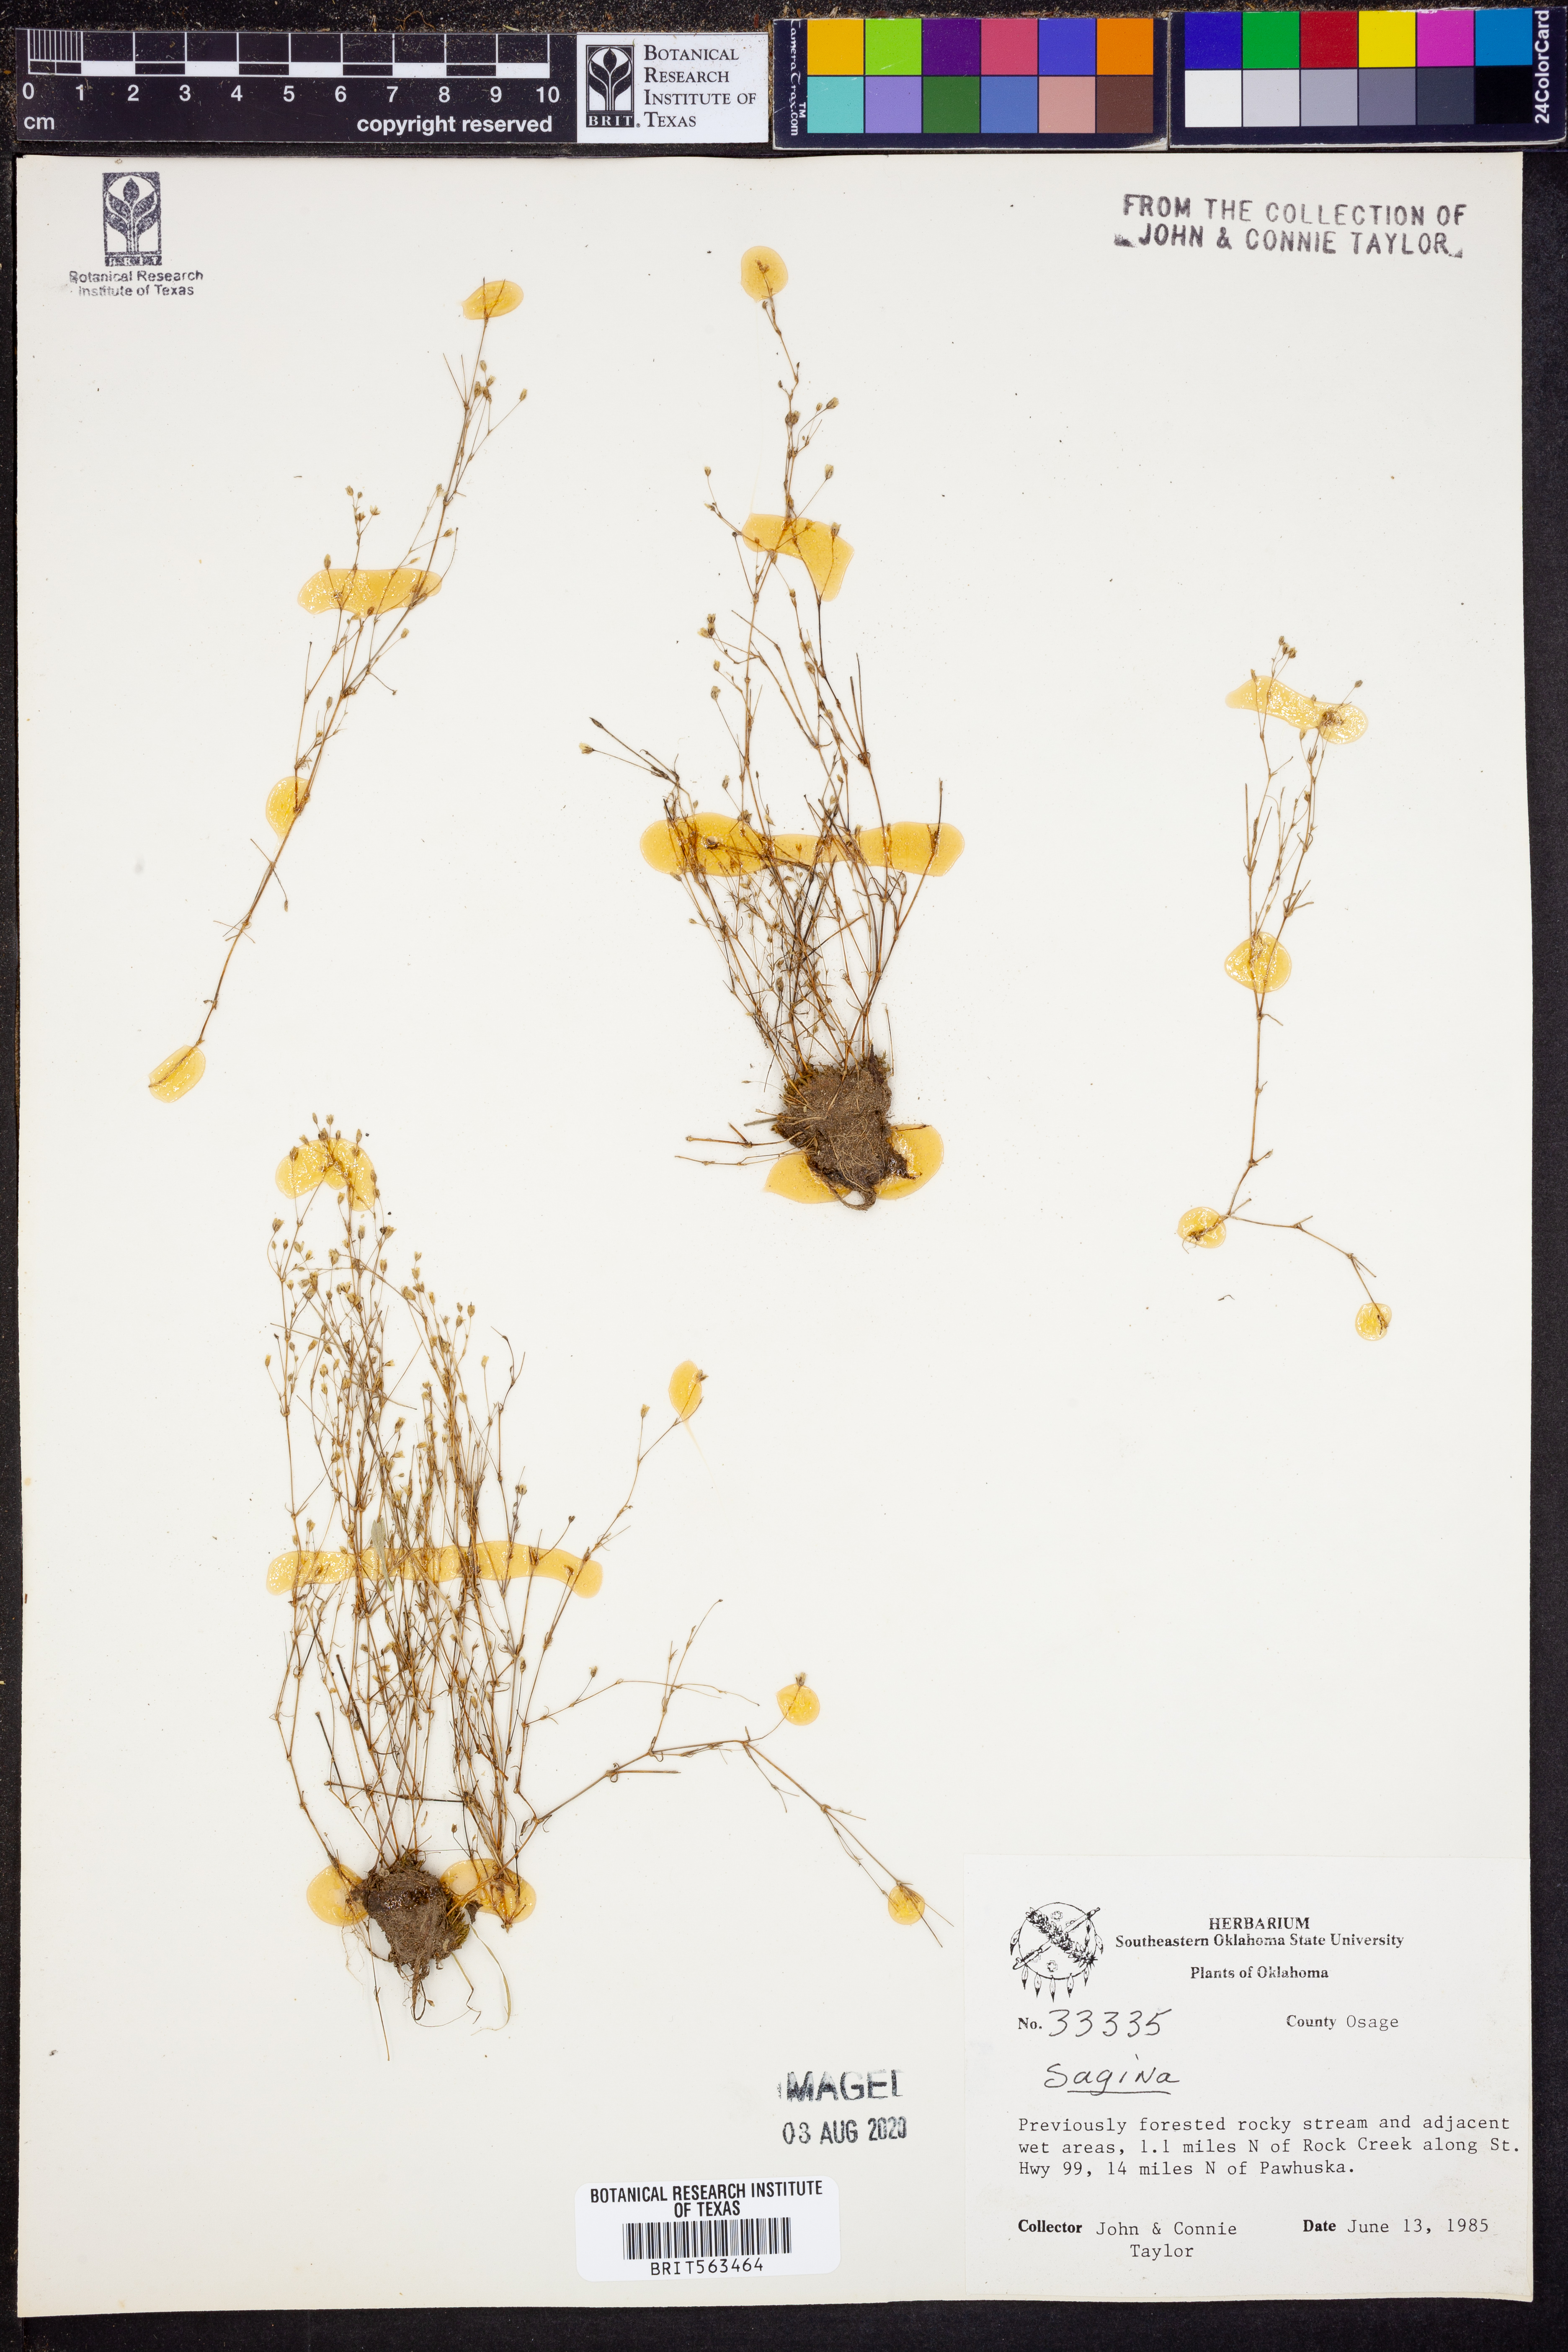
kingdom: Plantae
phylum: Tracheophyta
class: Magnoliopsida
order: Caryophyllales
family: Caryophyllaceae
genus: Sagina
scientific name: Sagina
